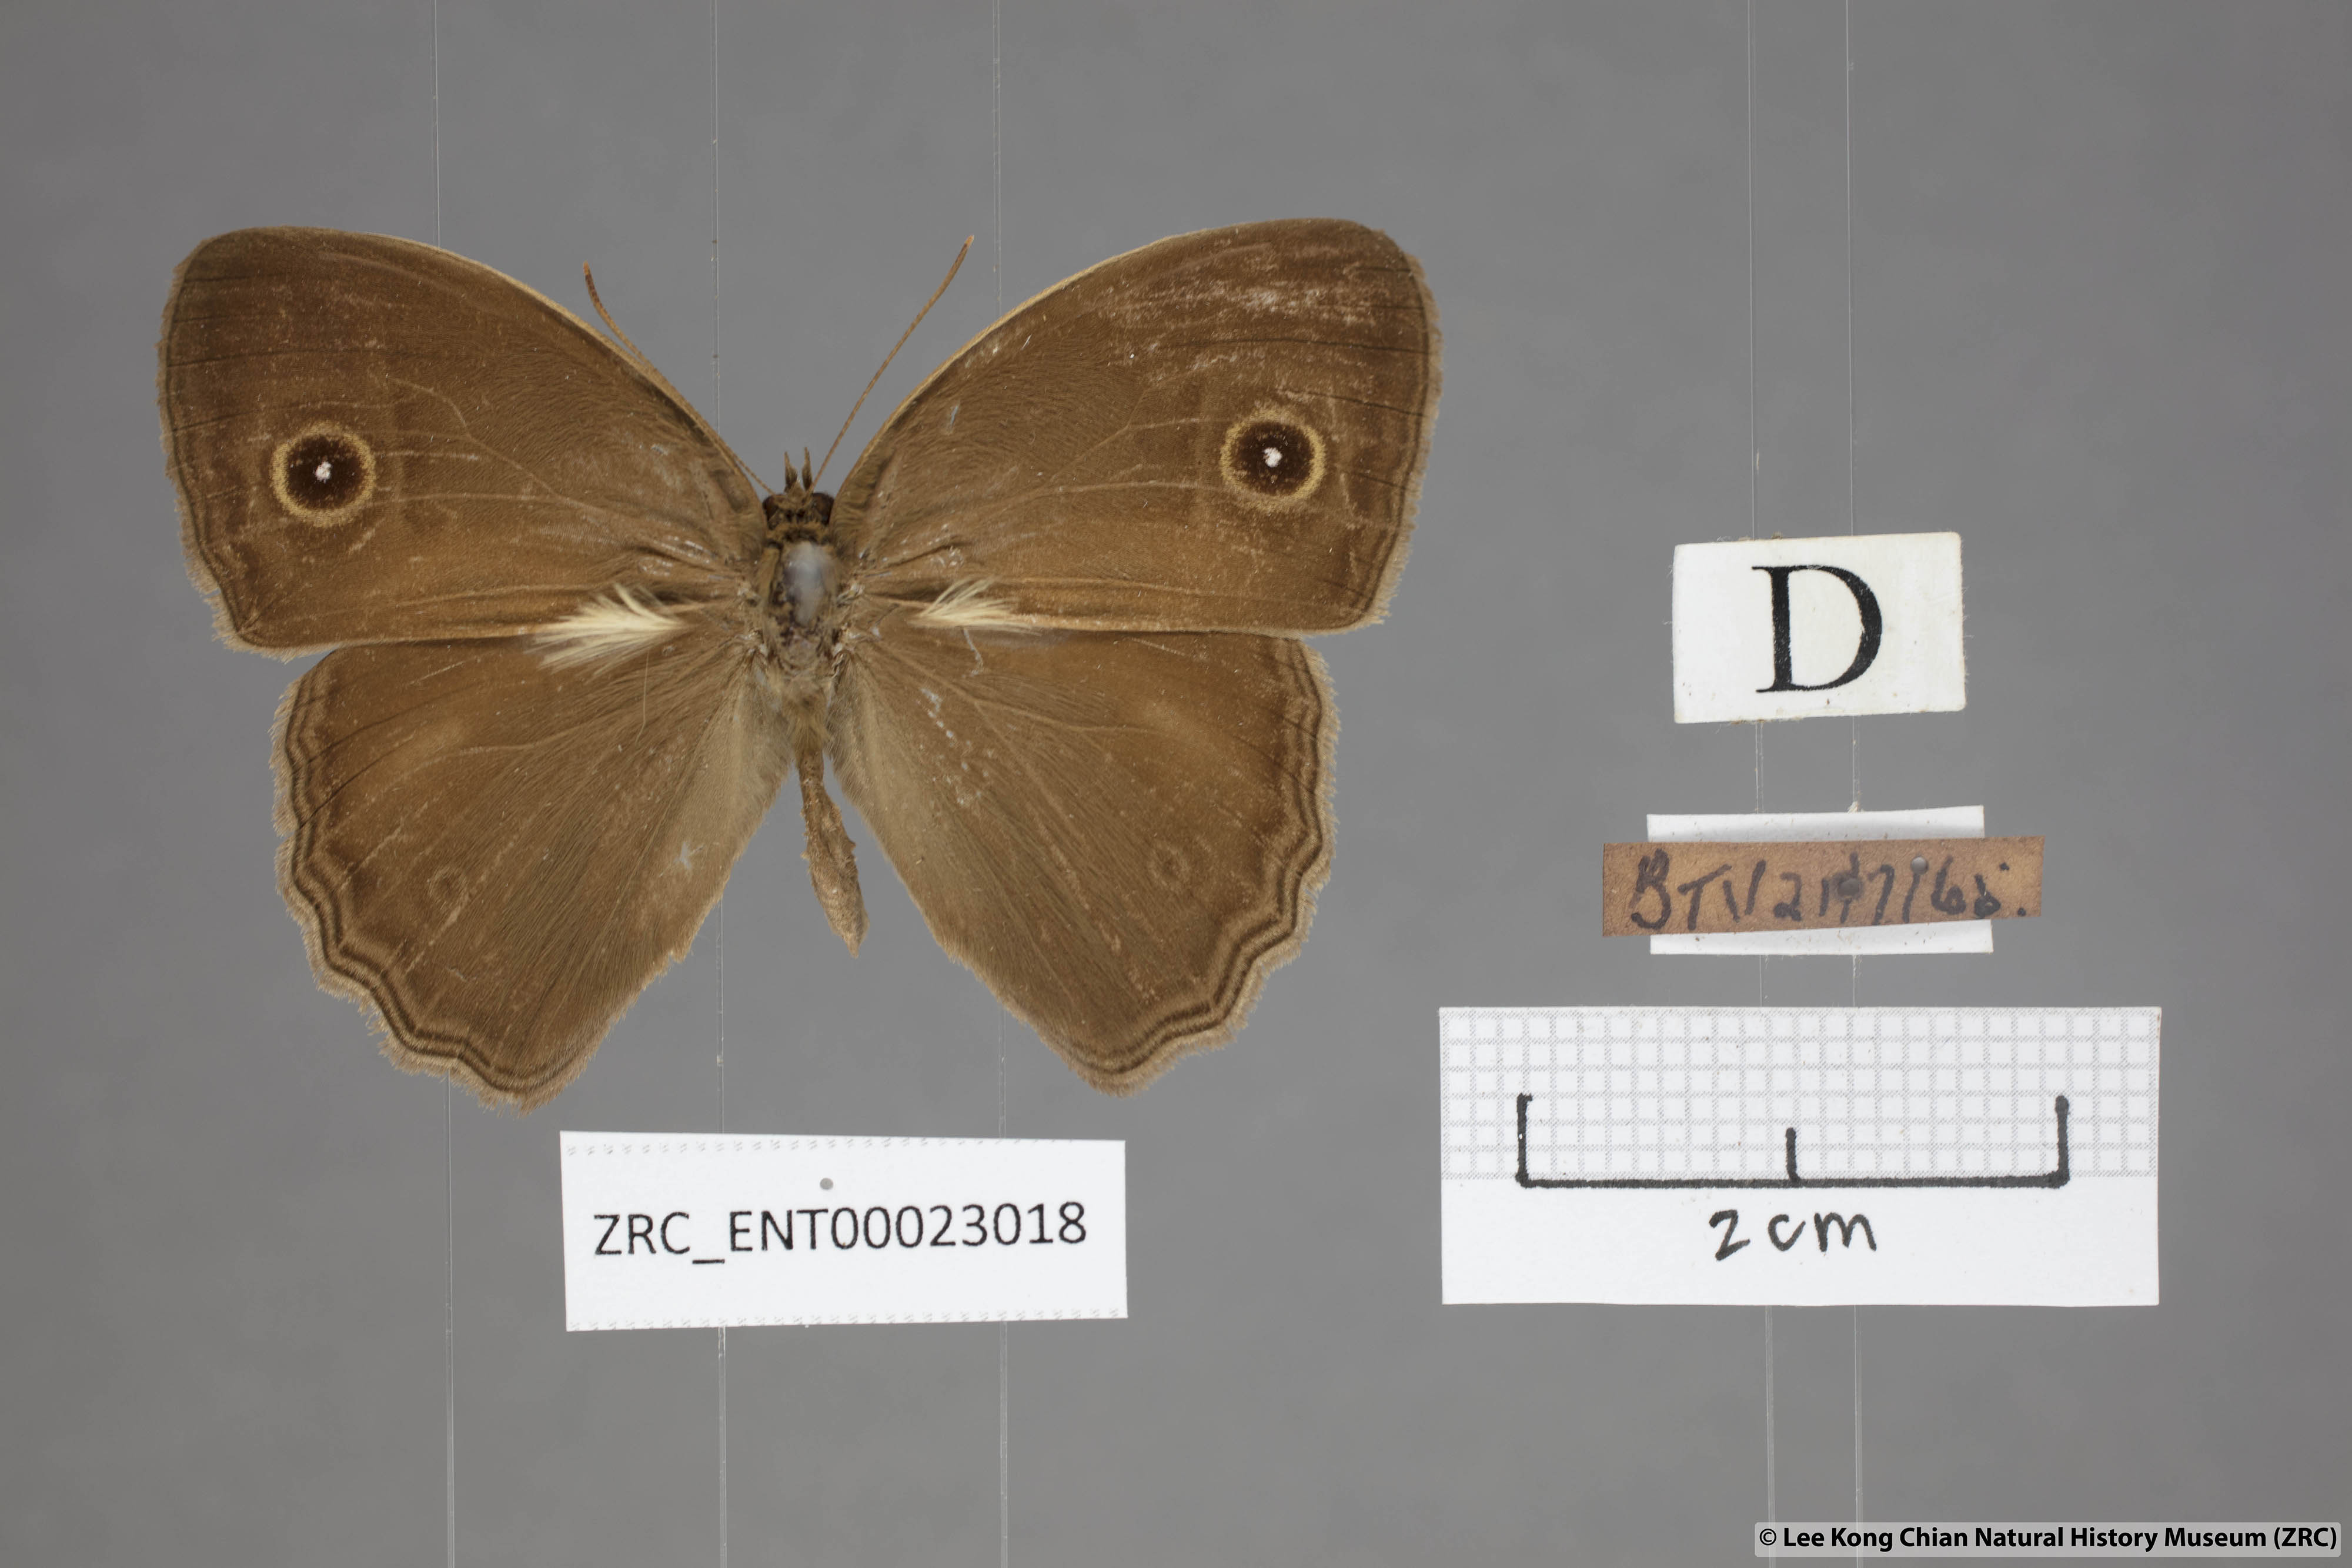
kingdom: Animalia
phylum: Arthropoda
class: Insecta
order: Lepidoptera
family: Nymphalidae
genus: Mycalesis
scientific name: Mycalesis visala
